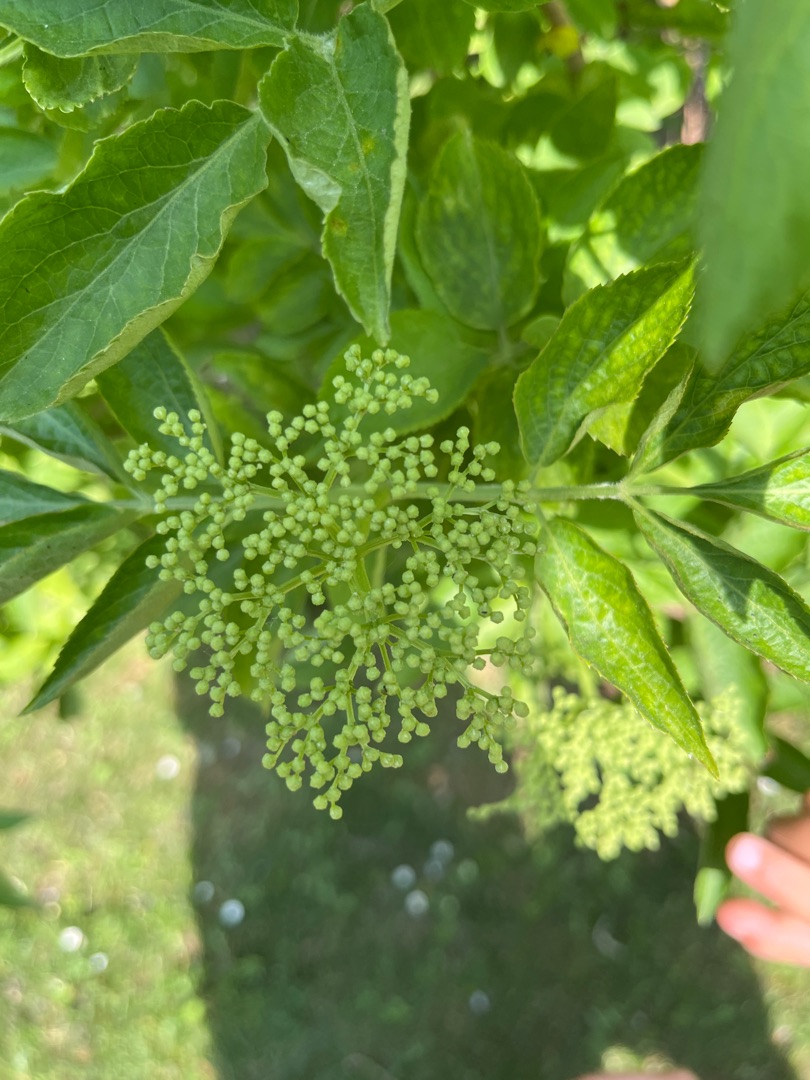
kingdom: Plantae
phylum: Tracheophyta
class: Magnoliopsida
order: Dipsacales
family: Viburnaceae
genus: Sambucus
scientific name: Sambucus nigra
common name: Almindelig hyld
